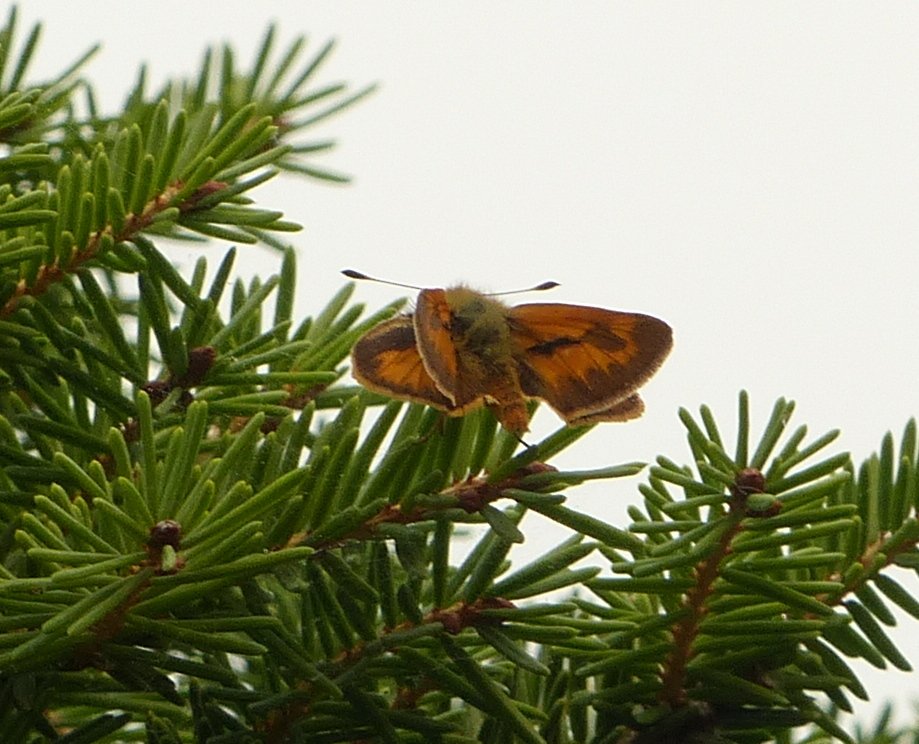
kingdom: Animalia
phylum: Arthropoda
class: Insecta
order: Lepidoptera
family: Hesperiidae
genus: Ochlodes
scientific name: Ochlodes sylvanoides
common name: Woodland Skipper
